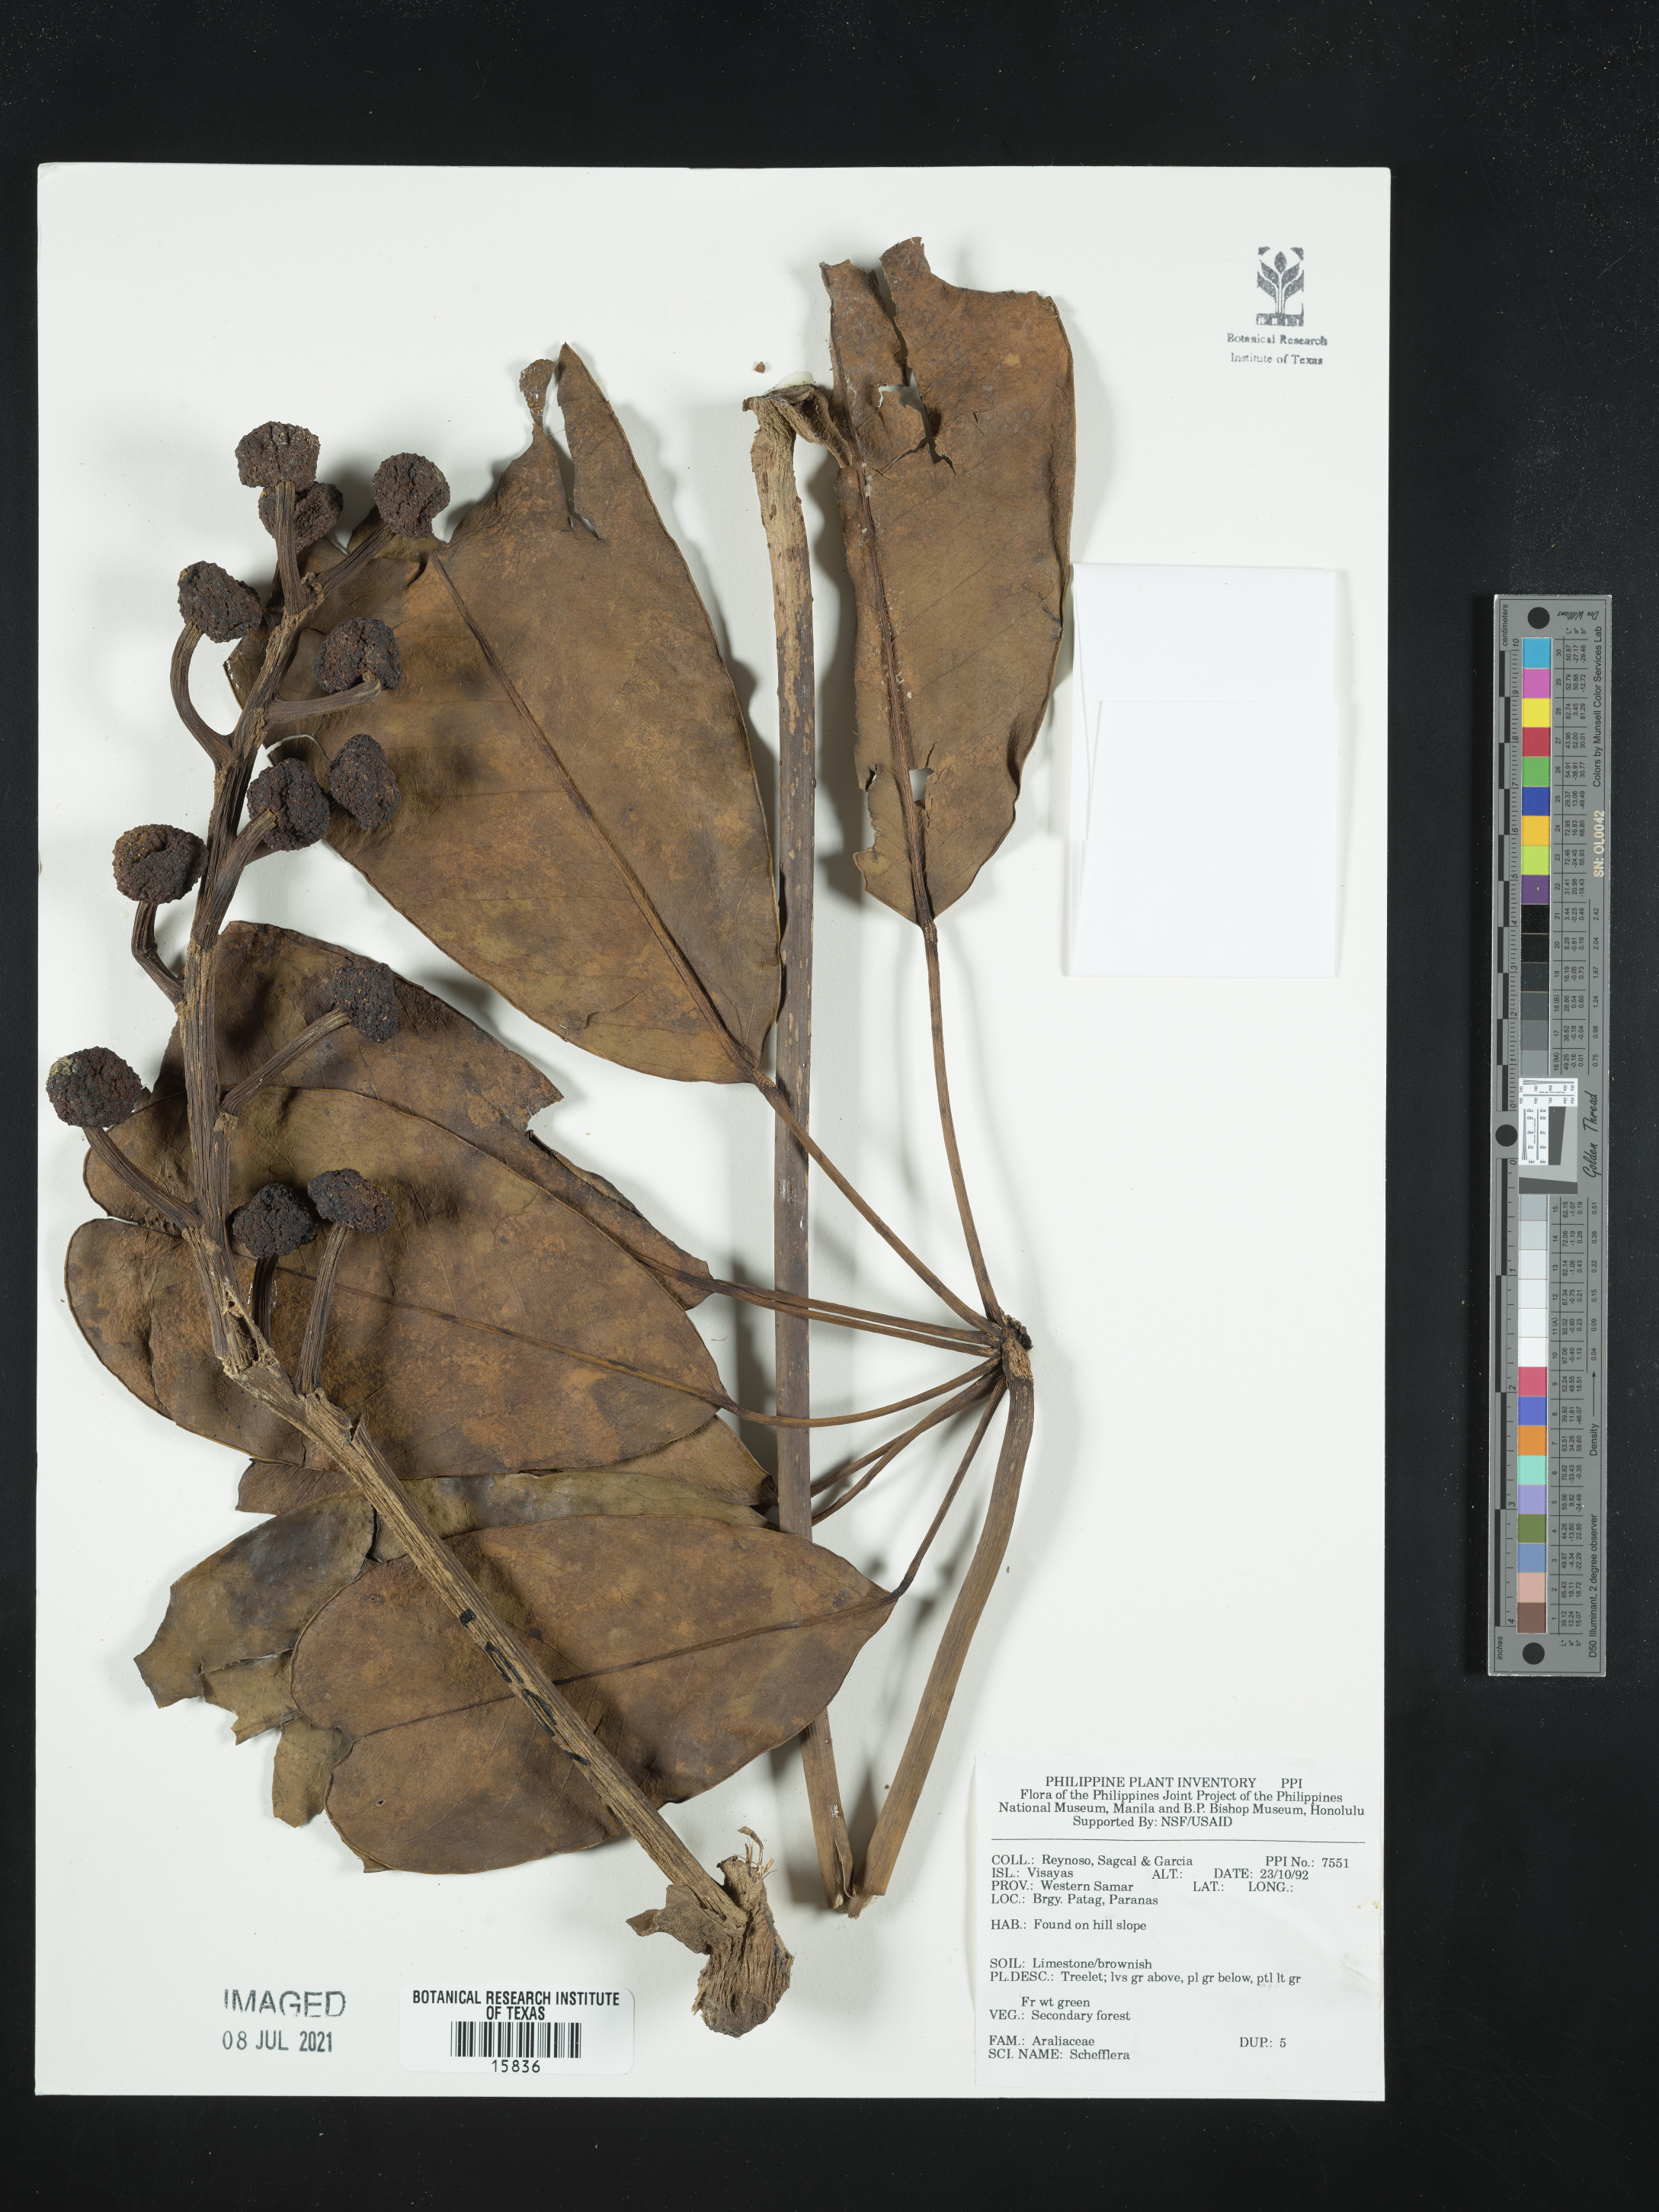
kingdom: Plantae
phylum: Tracheophyta
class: Magnoliopsida
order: Apiales
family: Araliaceae
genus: Schefflera
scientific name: Schefflera
